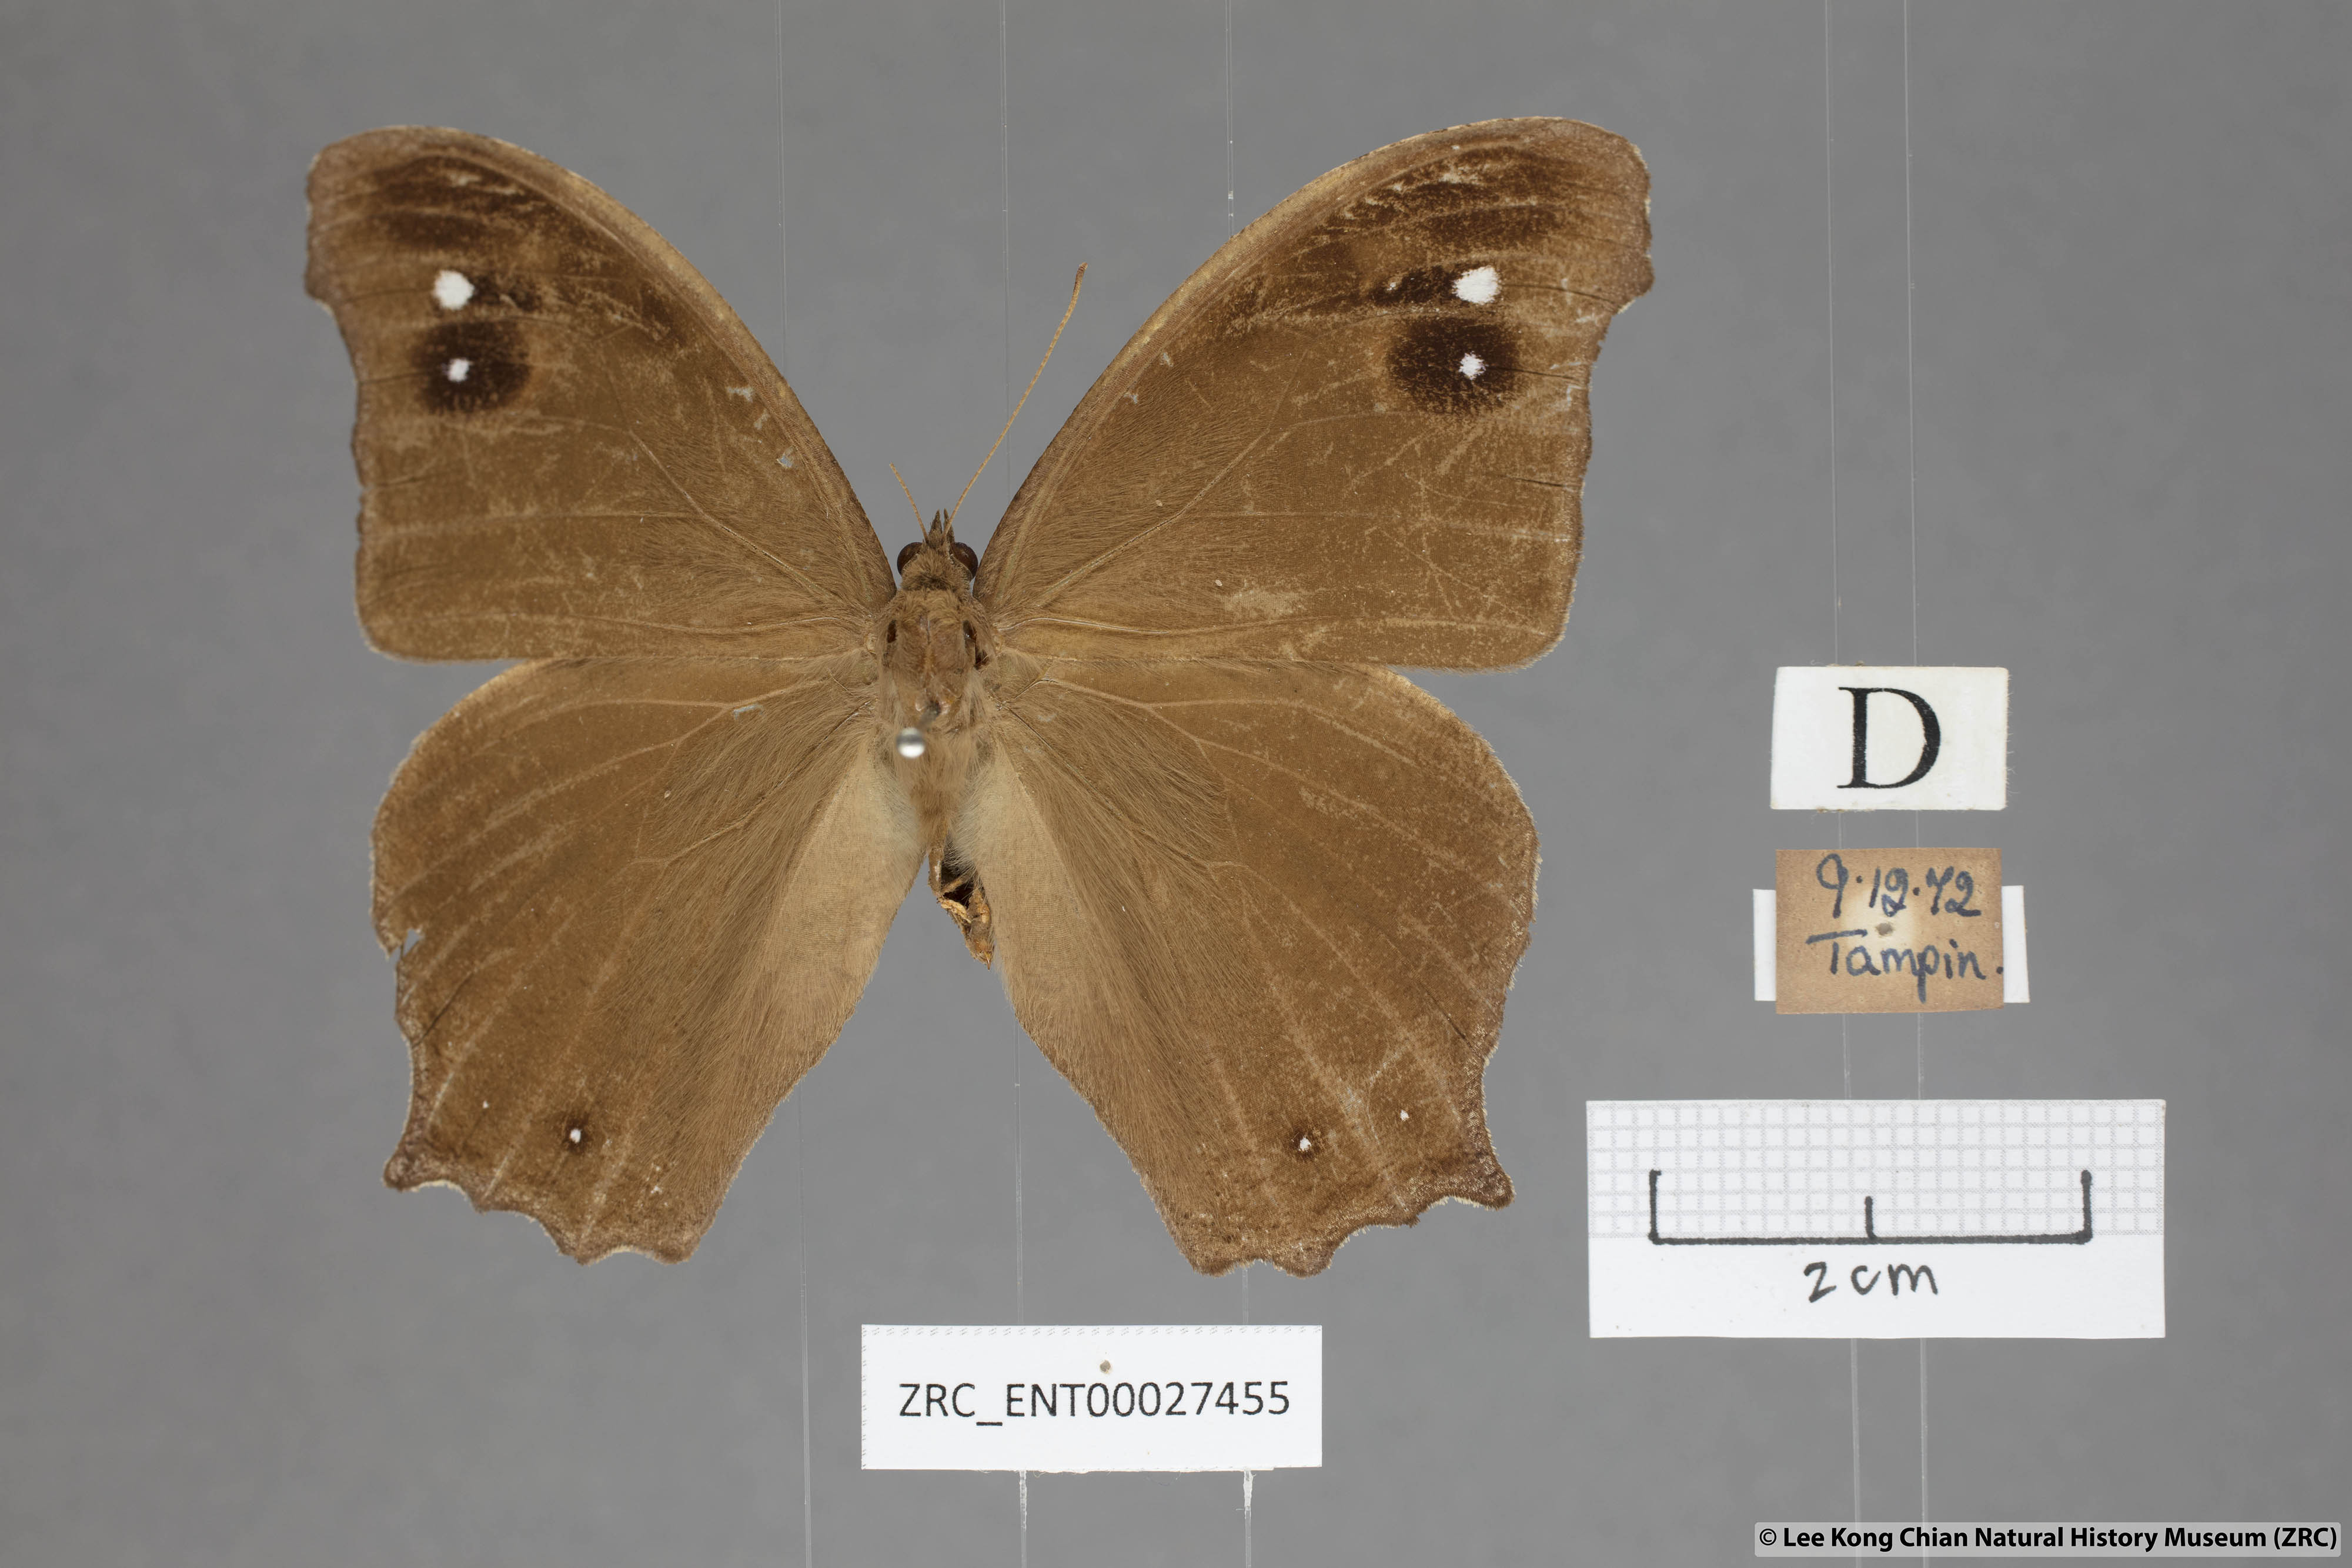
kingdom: Animalia
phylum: Arthropoda
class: Insecta
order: Lepidoptera
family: Nymphalidae
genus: Melanitis
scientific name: Melanitis leda
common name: Twilight brown
